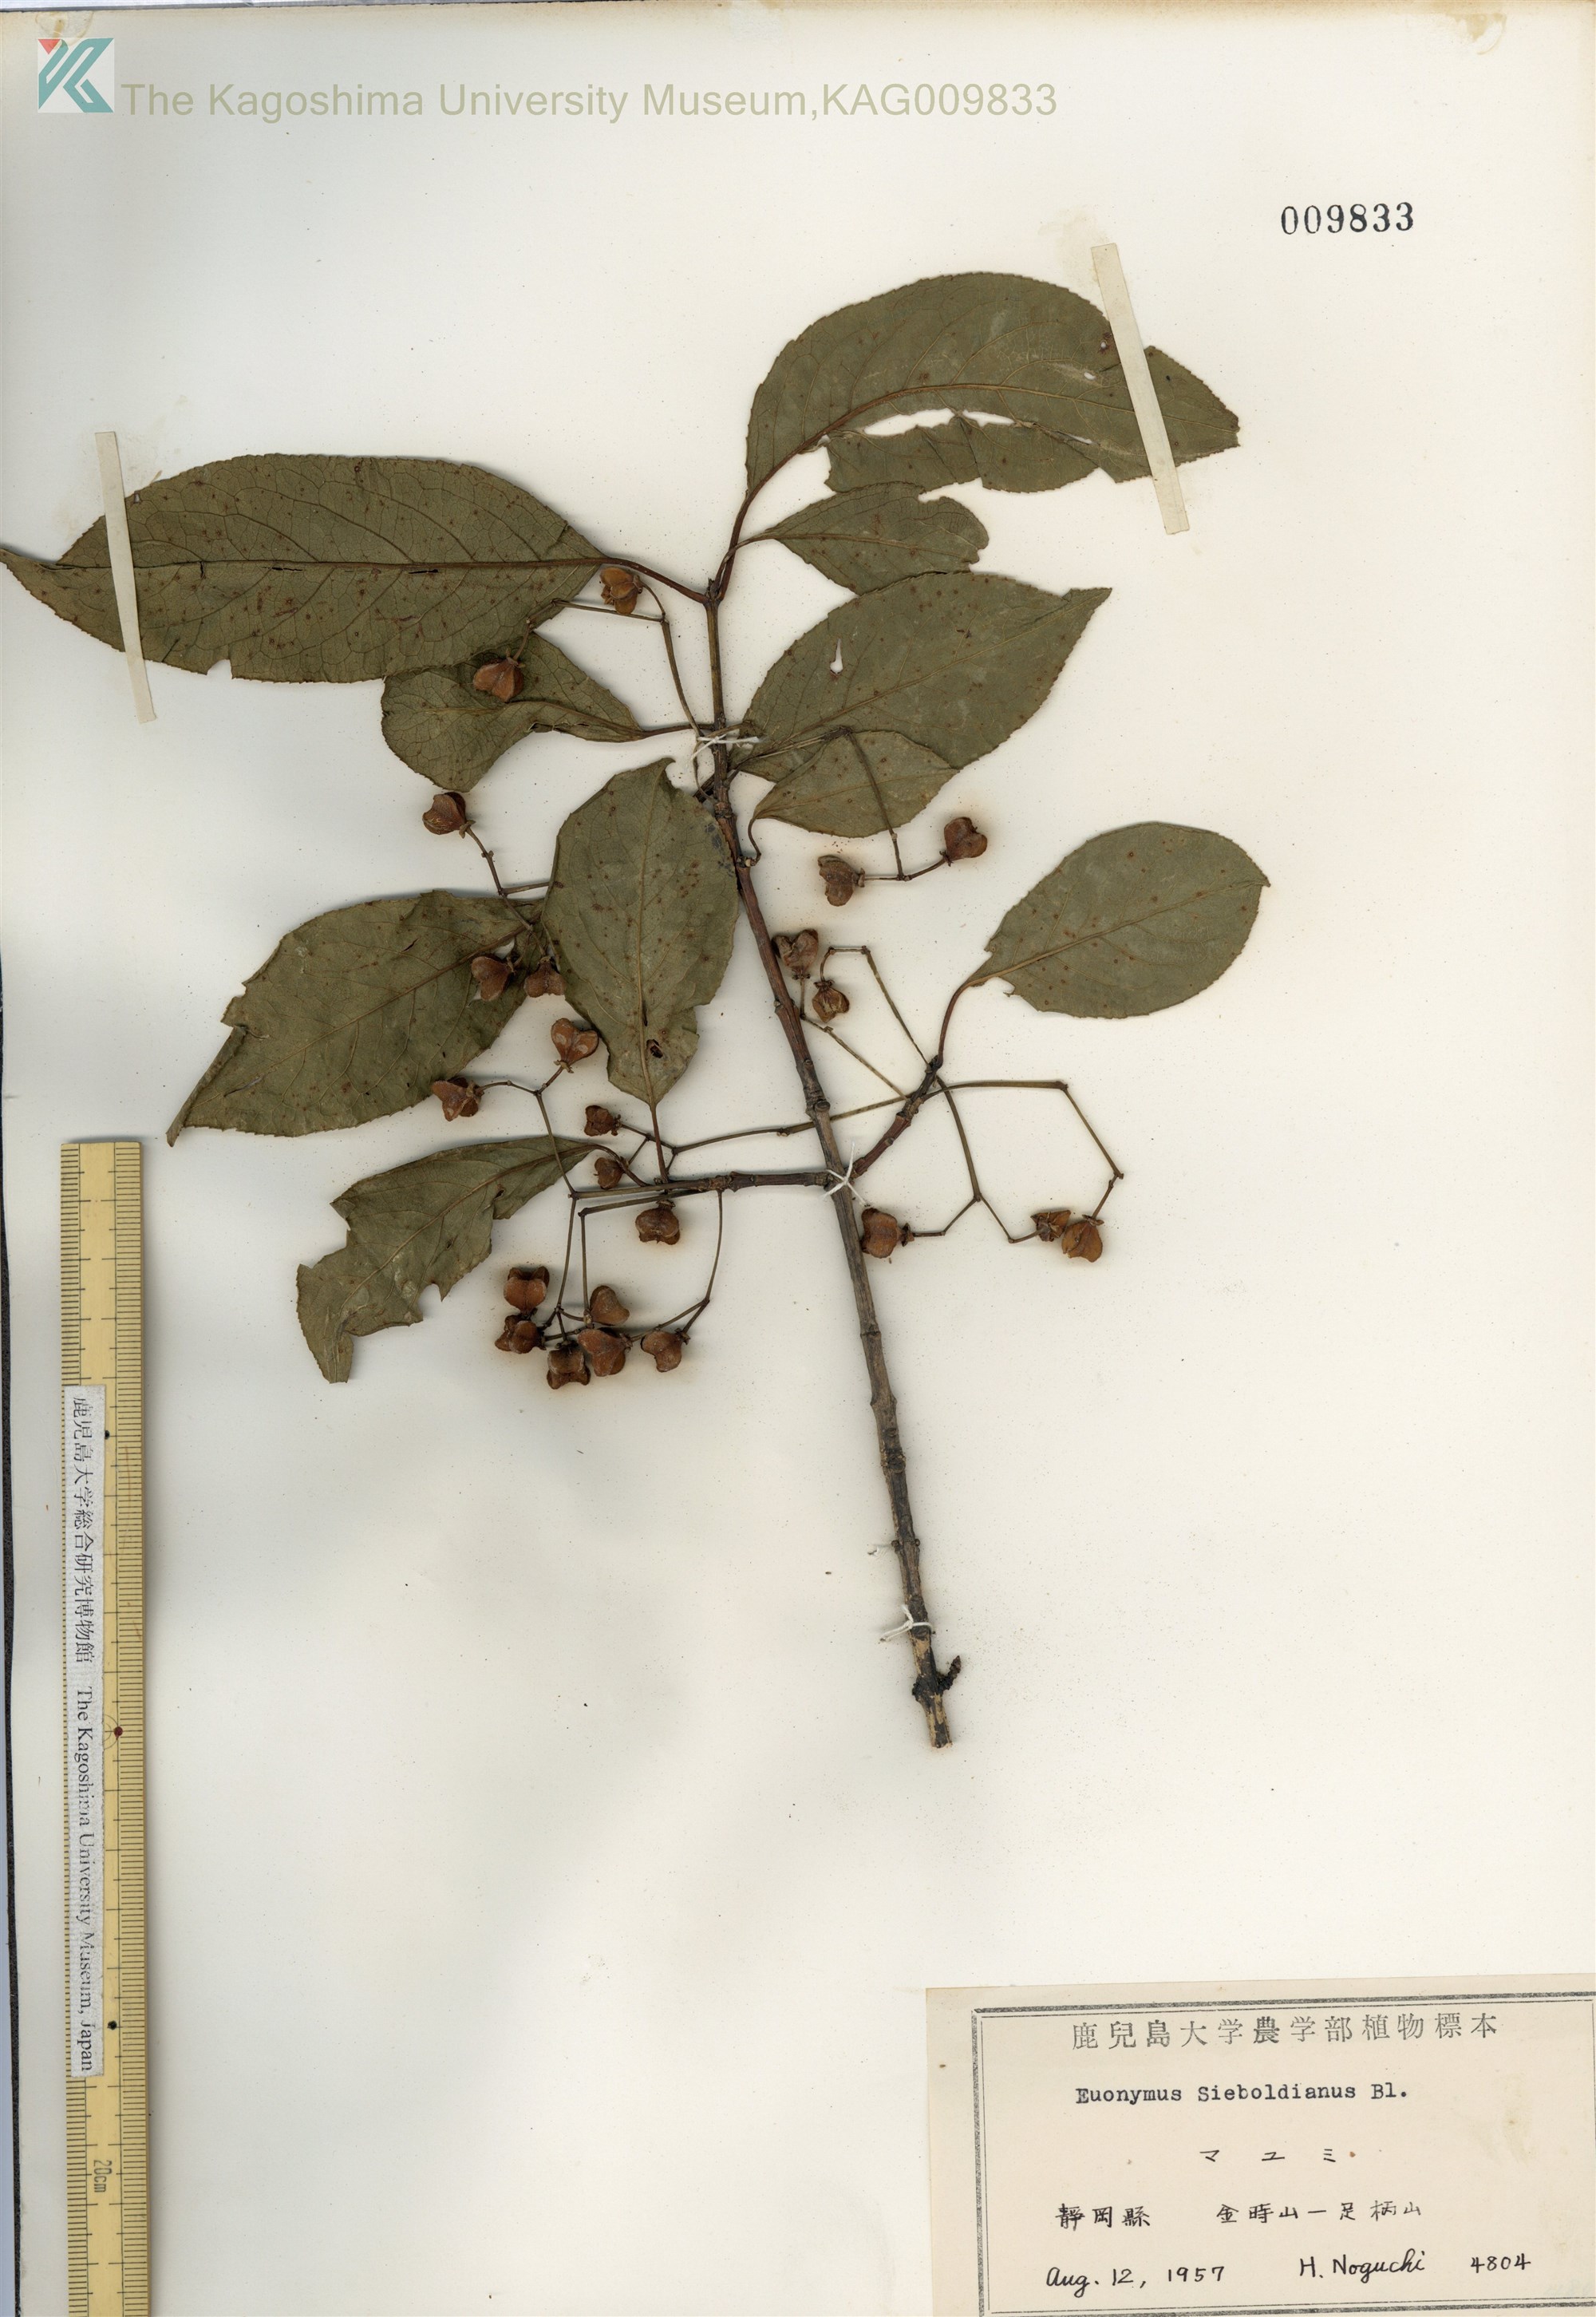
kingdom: Plantae
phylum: Tracheophyta
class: Magnoliopsida
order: Celastrales
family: Celastraceae
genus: Euonymus
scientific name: Euonymus hamiltonianus
